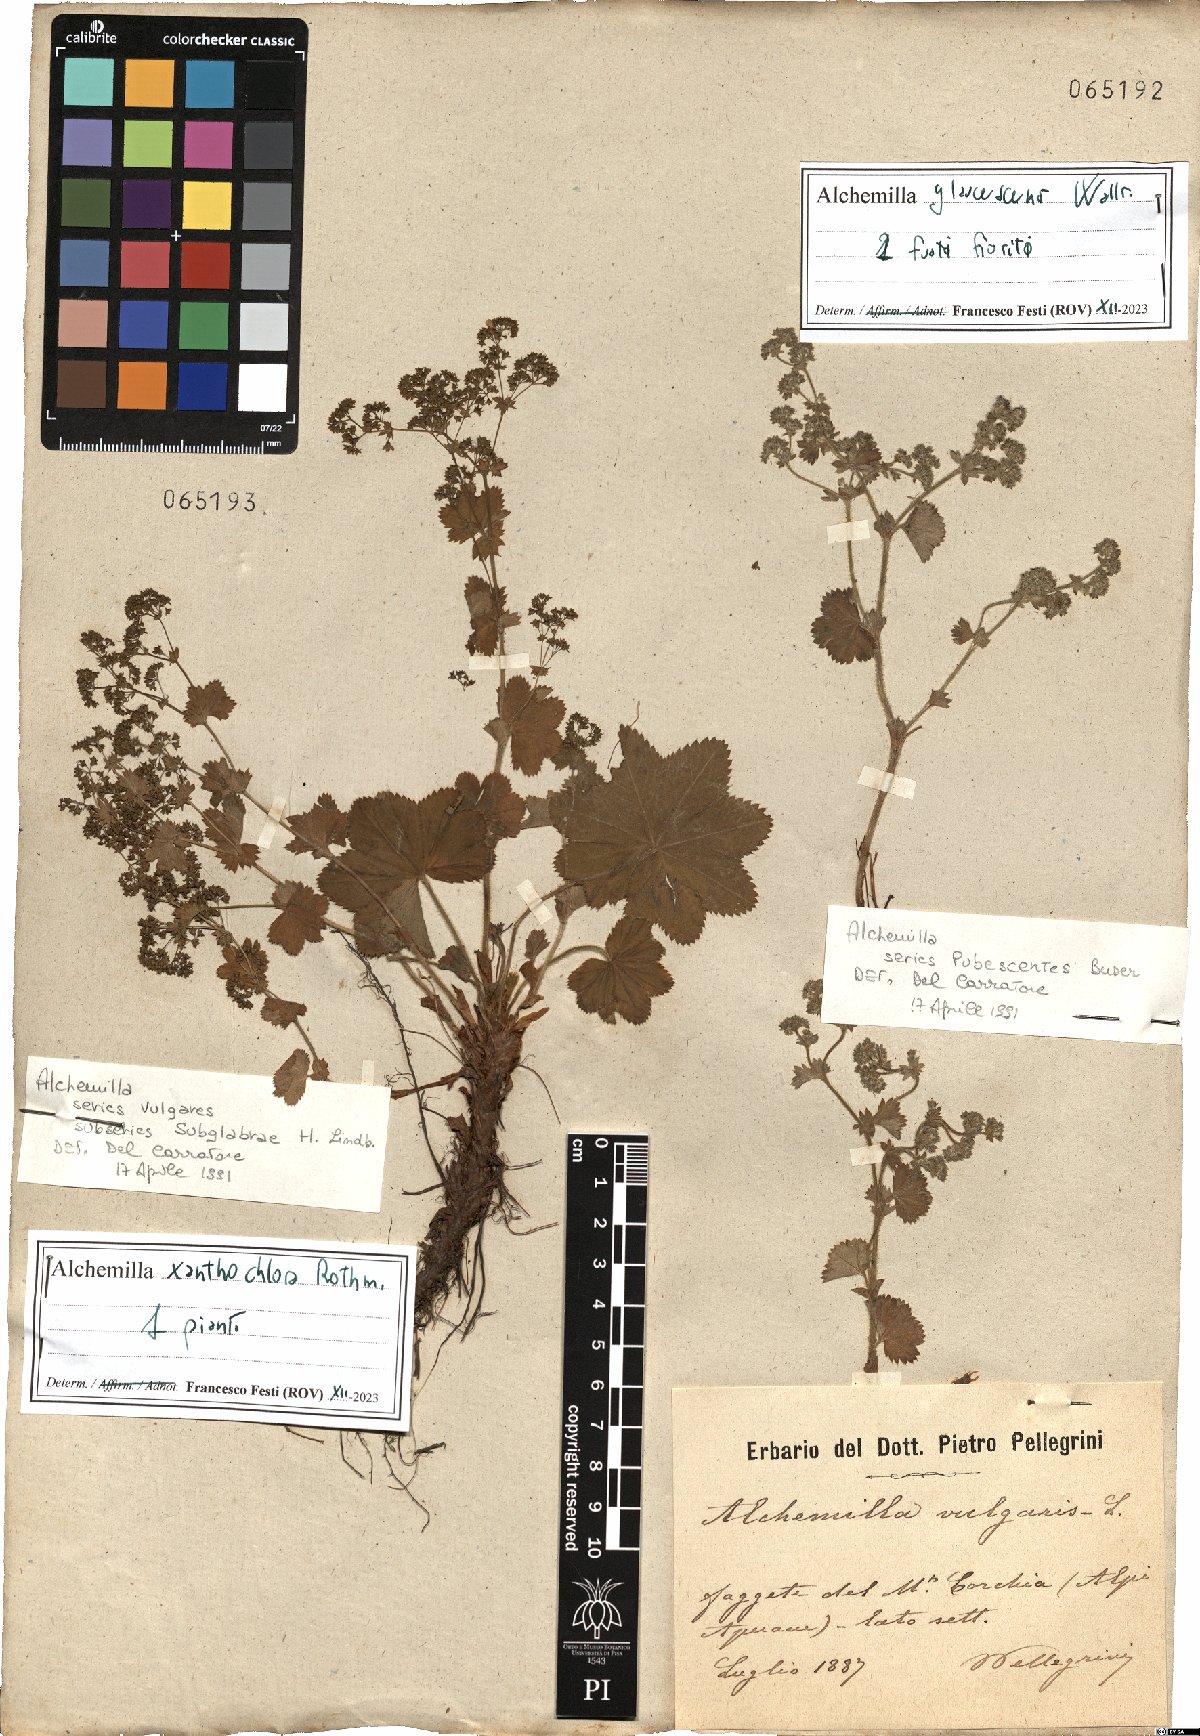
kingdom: Plantae
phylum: Tracheophyta
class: Magnoliopsida
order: Rosales
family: Rosaceae
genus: Alchemilla
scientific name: Alchemilla glaucescens
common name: Silky lady's mantle
